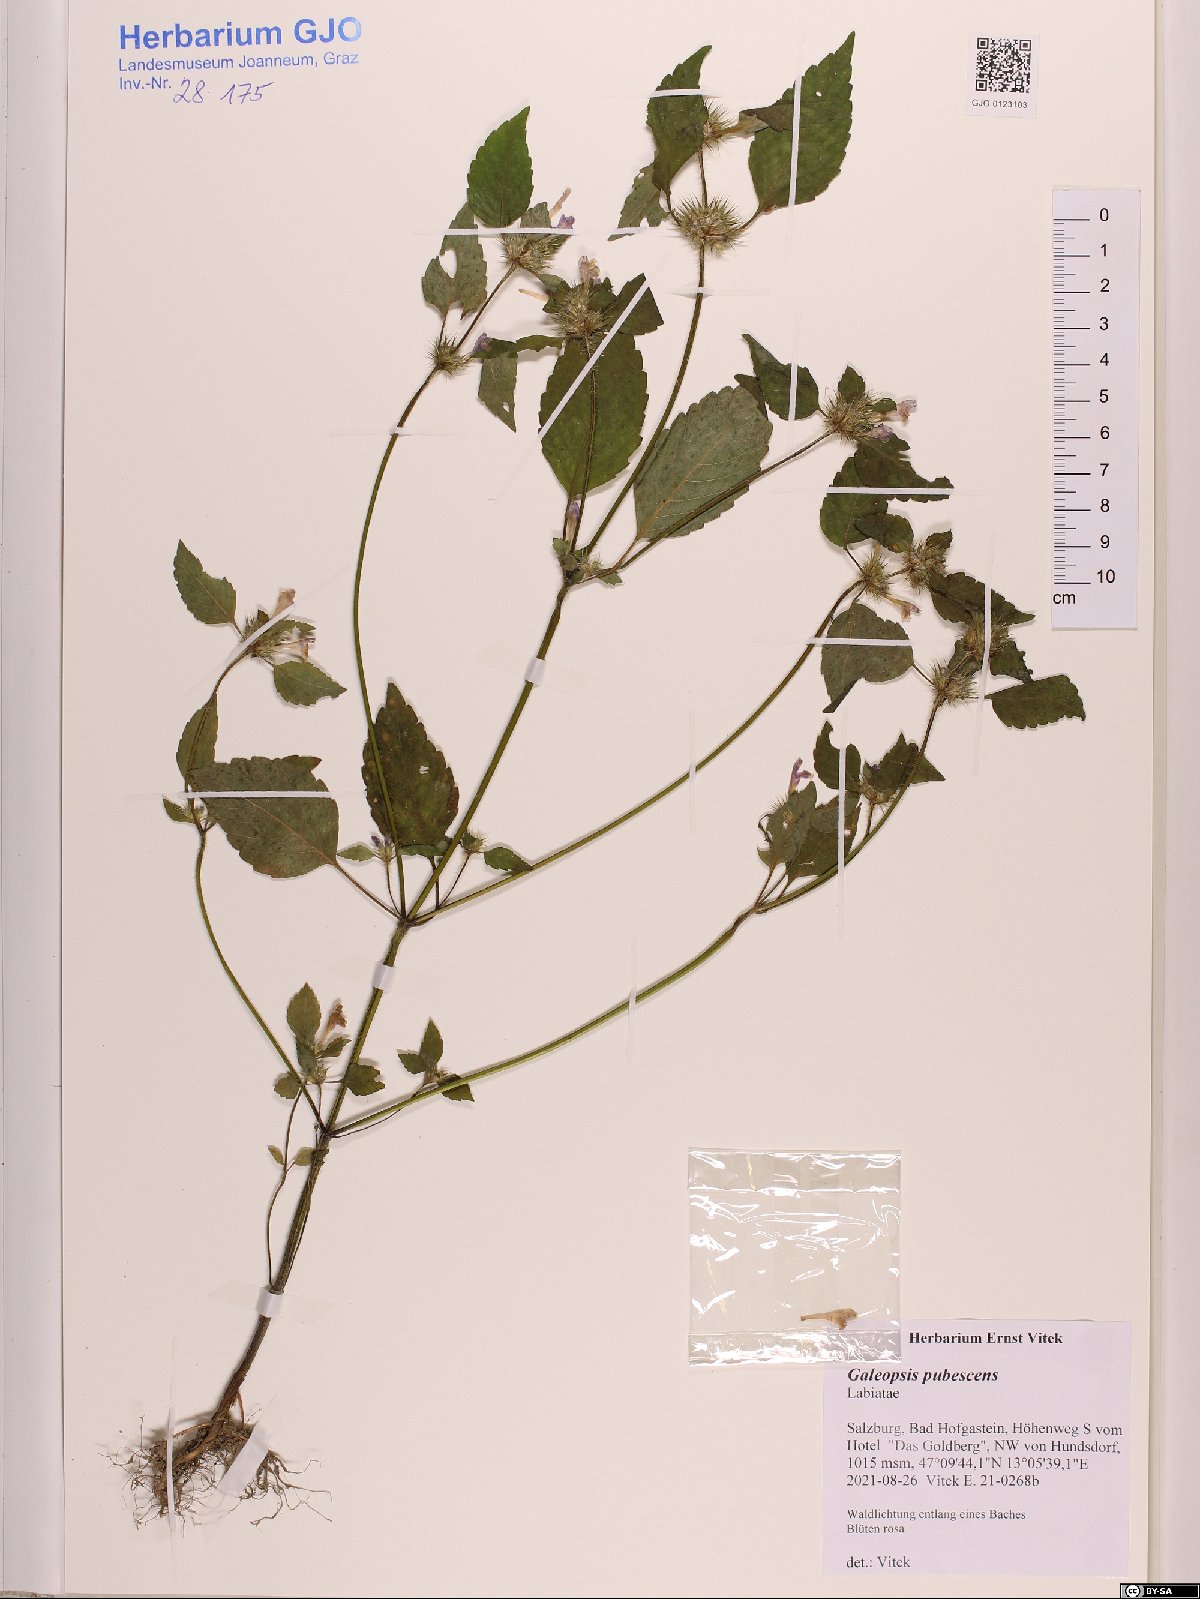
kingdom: Plantae
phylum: Tracheophyta
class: Magnoliopsida
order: Lamiales
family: Lamiaceae
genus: Galeopsis
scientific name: Galeopsis pubescens
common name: Downy hemp-nettle
